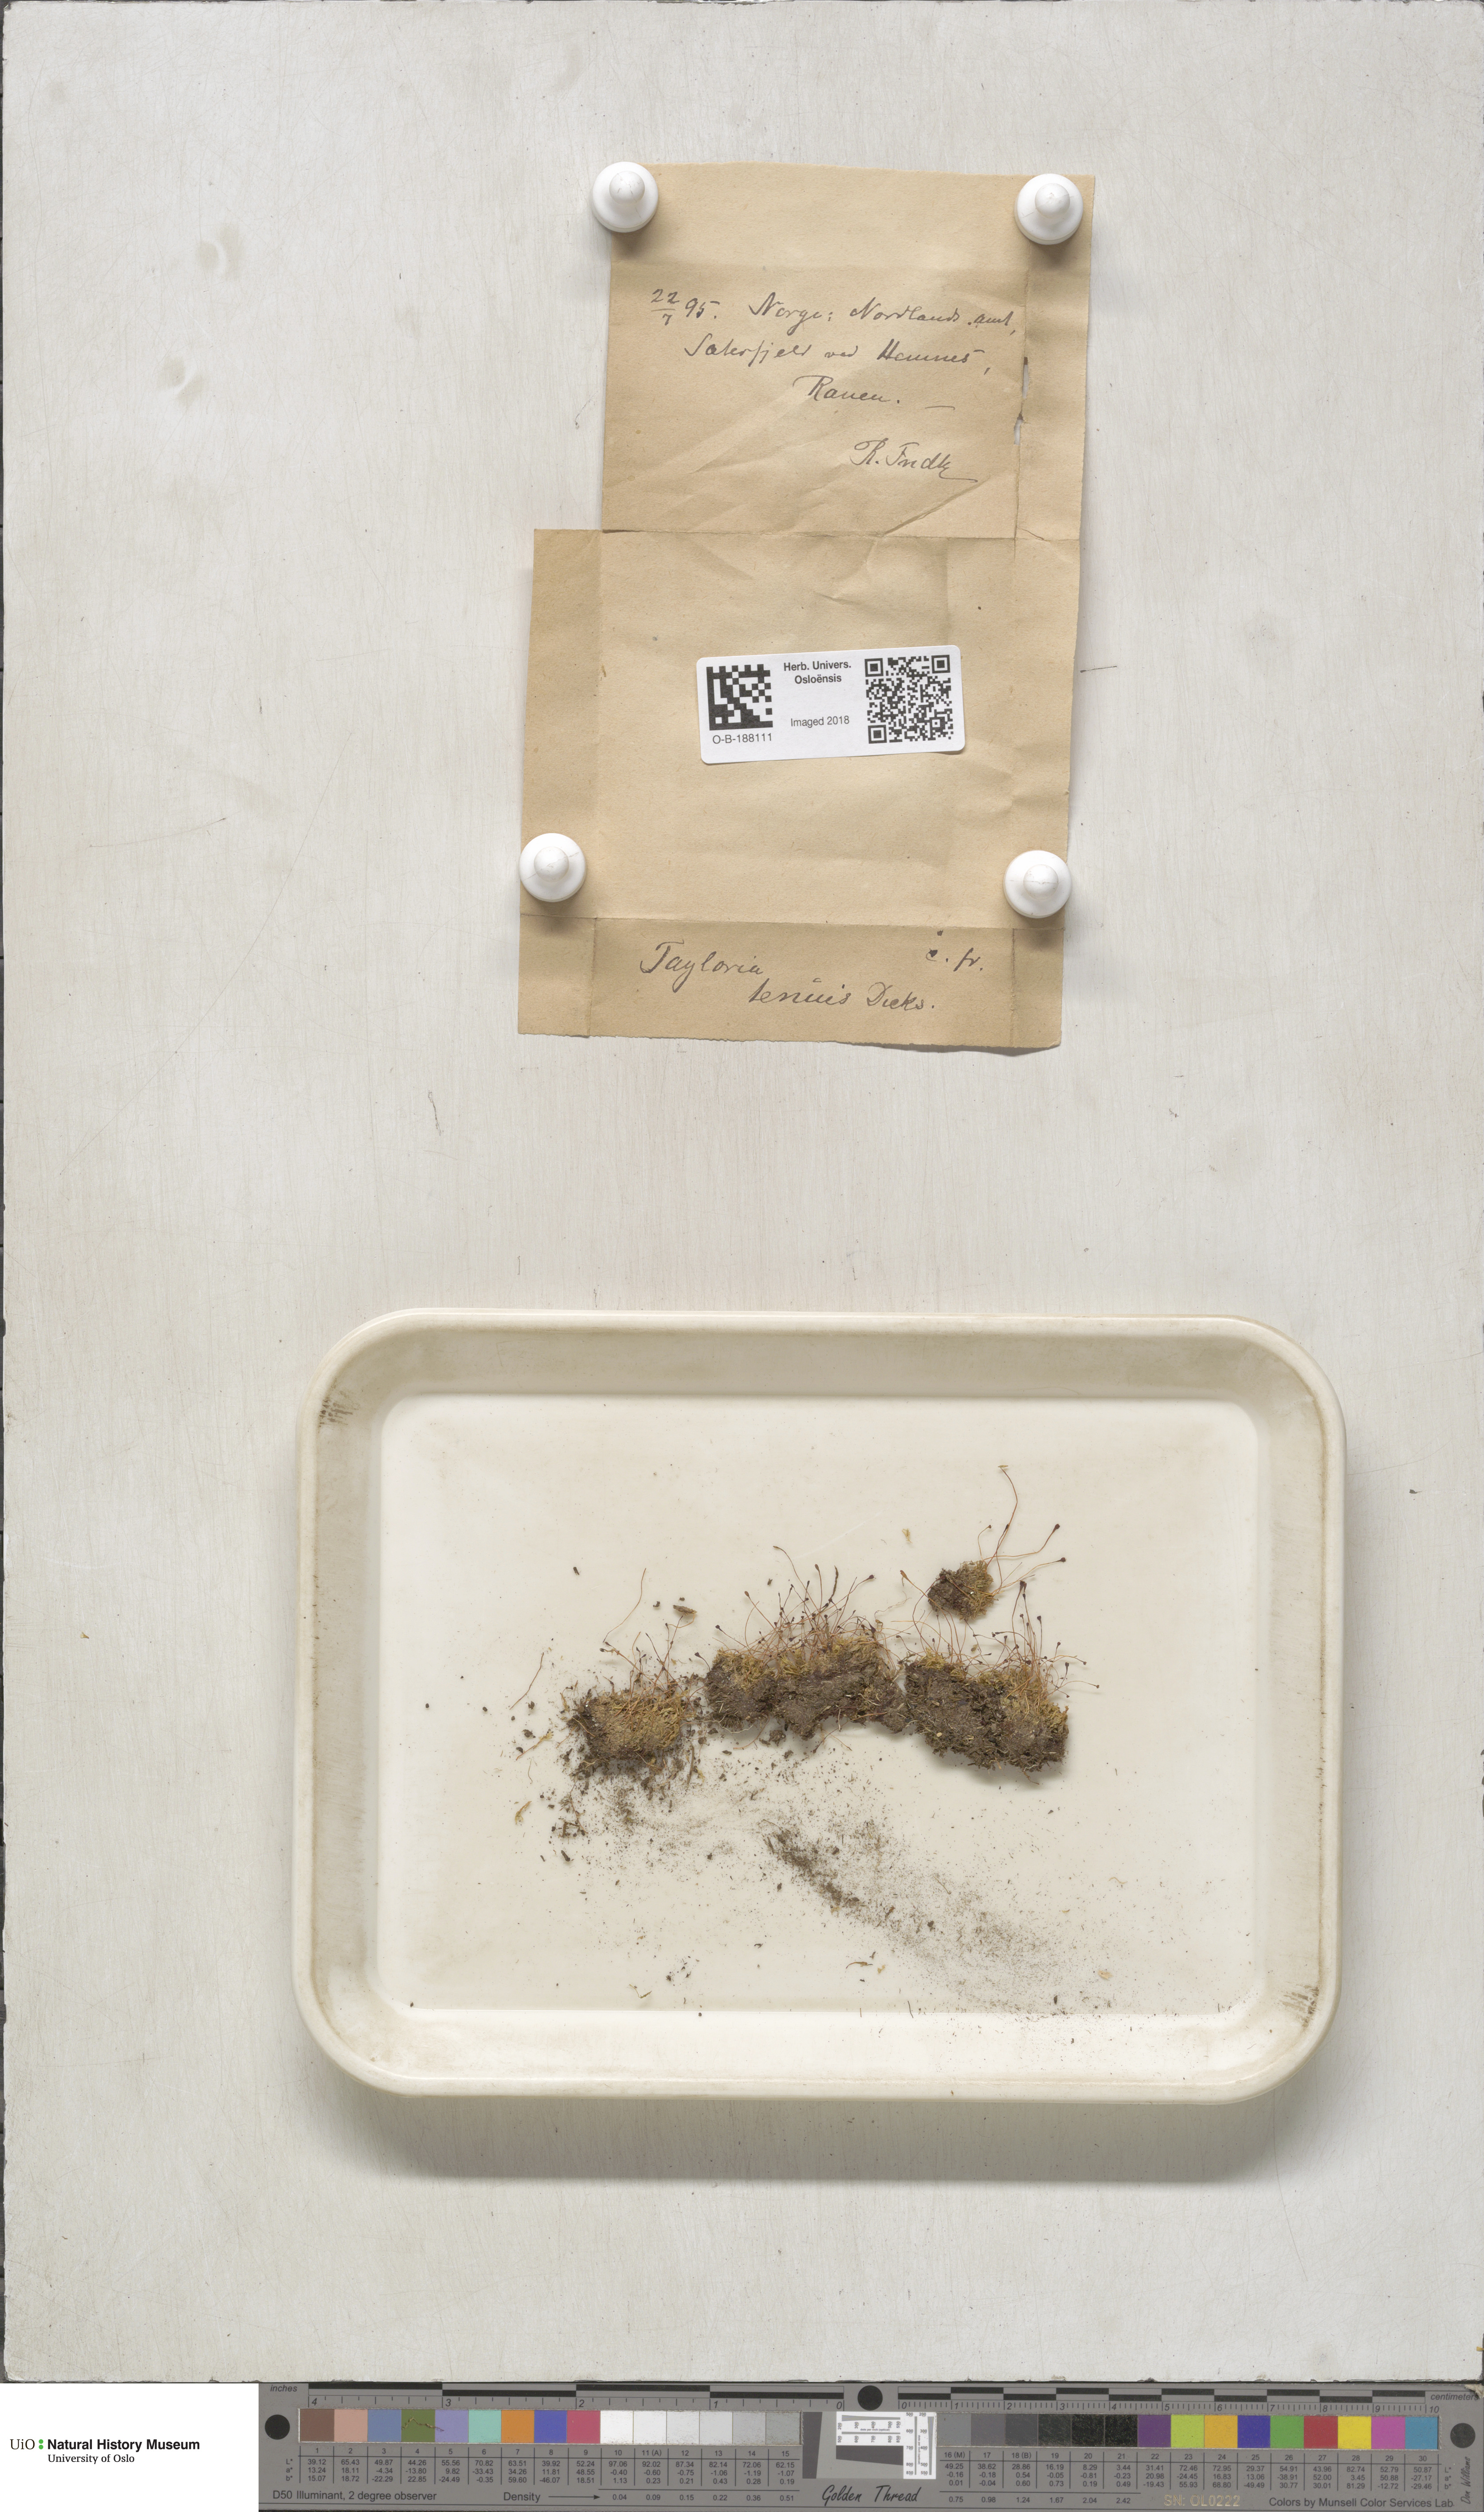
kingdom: Plantae
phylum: Bryophyta
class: Bryopsida
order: Splachnales
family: Splachnaceae
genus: Tayloria
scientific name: Tayloria tenuis
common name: Slender gland-moss
